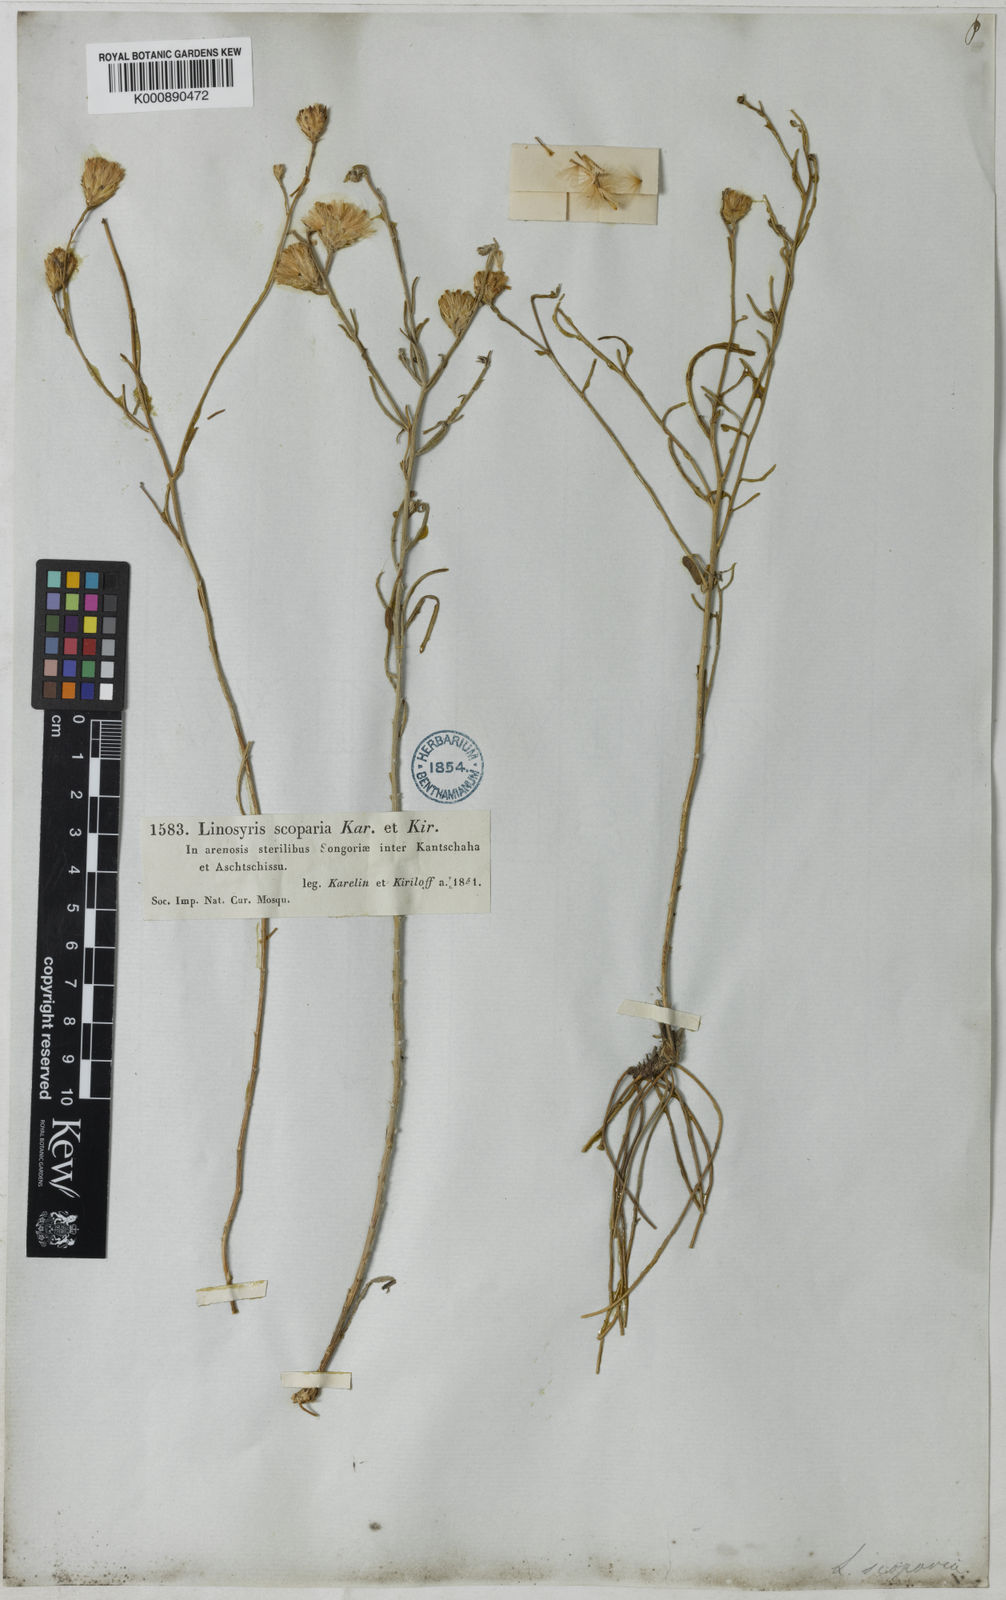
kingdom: Plantae
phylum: Tracheophyta
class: Magnoliopsida
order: Asterales
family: Asteraceae
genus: Aster
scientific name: Aster
